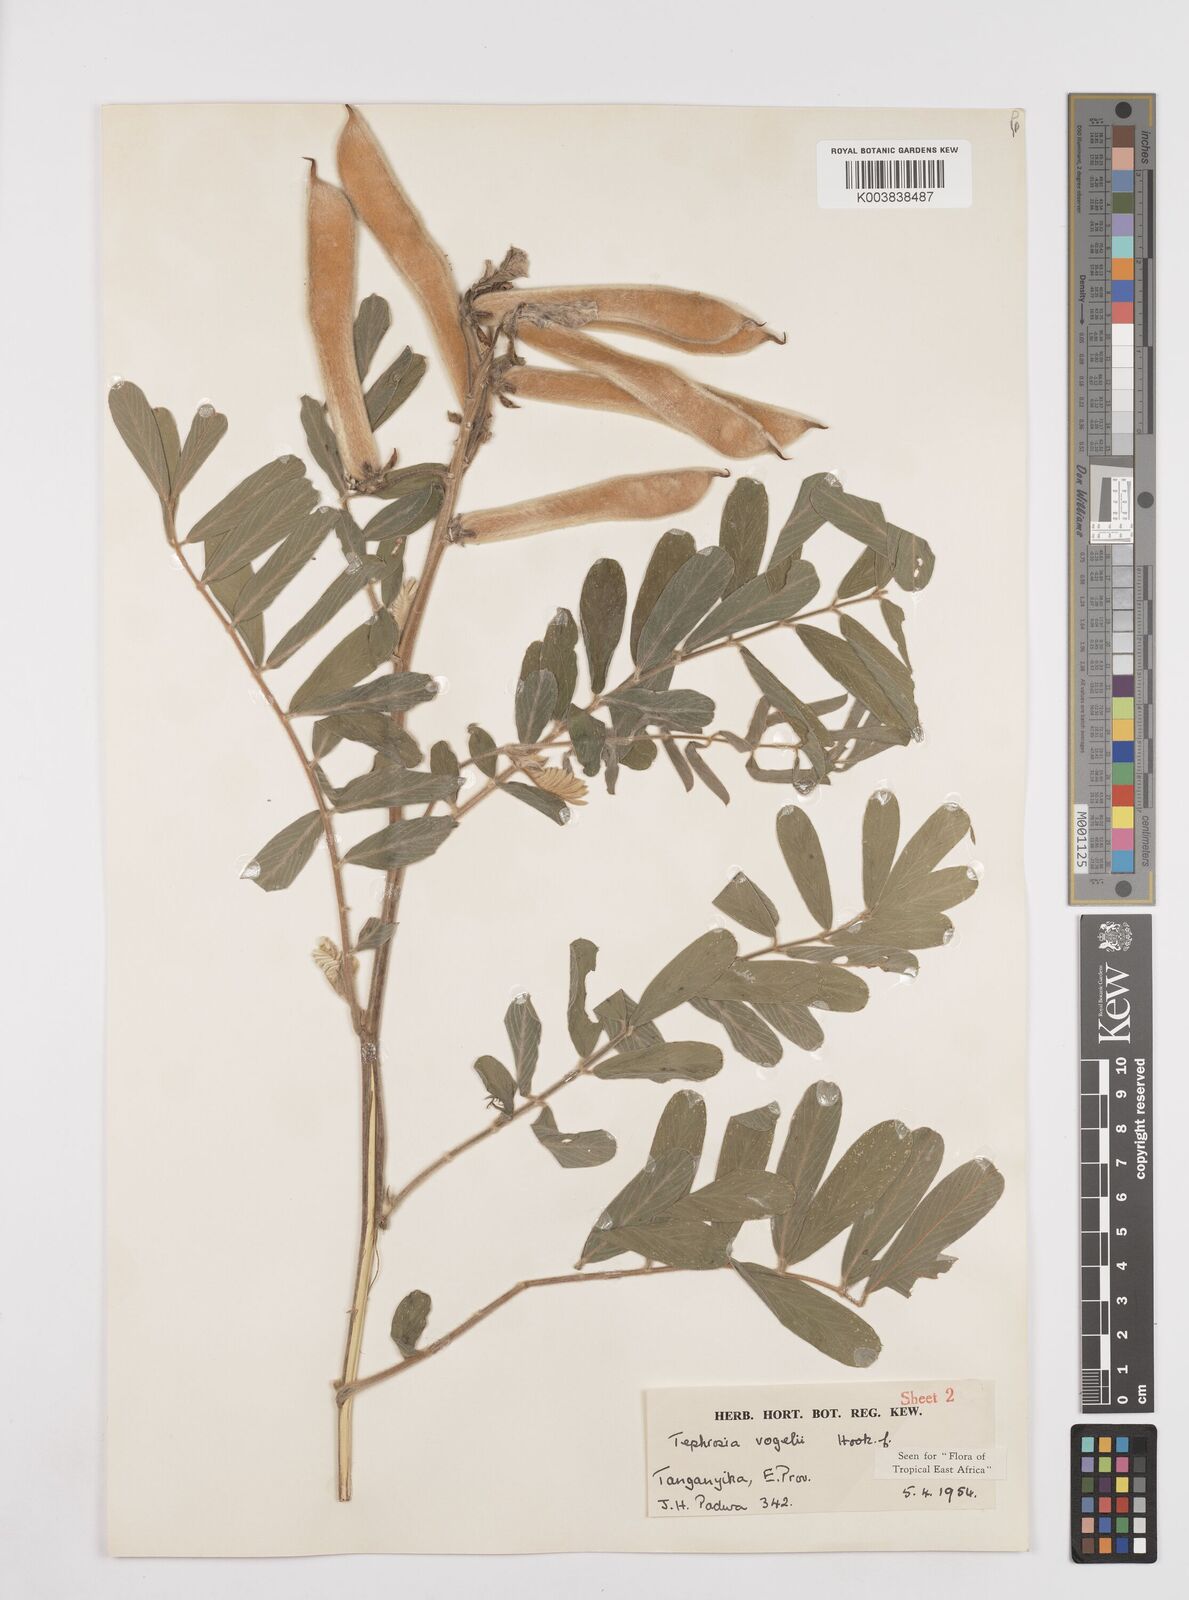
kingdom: Plantae
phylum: Tracheophyta
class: Magnoliopsida
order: Fabales
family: Fabaceae
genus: Tephrosia
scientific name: Tephrosia vogelii
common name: Vogel tephrosia
